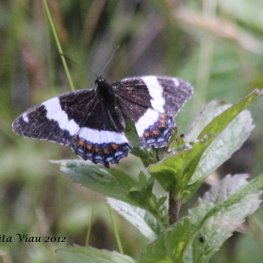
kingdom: Animalia
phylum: Arthropoda
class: Insecta
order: Lepidoptera
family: Nymphalidae
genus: Limenitis
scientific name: Limenitis arthemis
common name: Red-spotted Admiral
